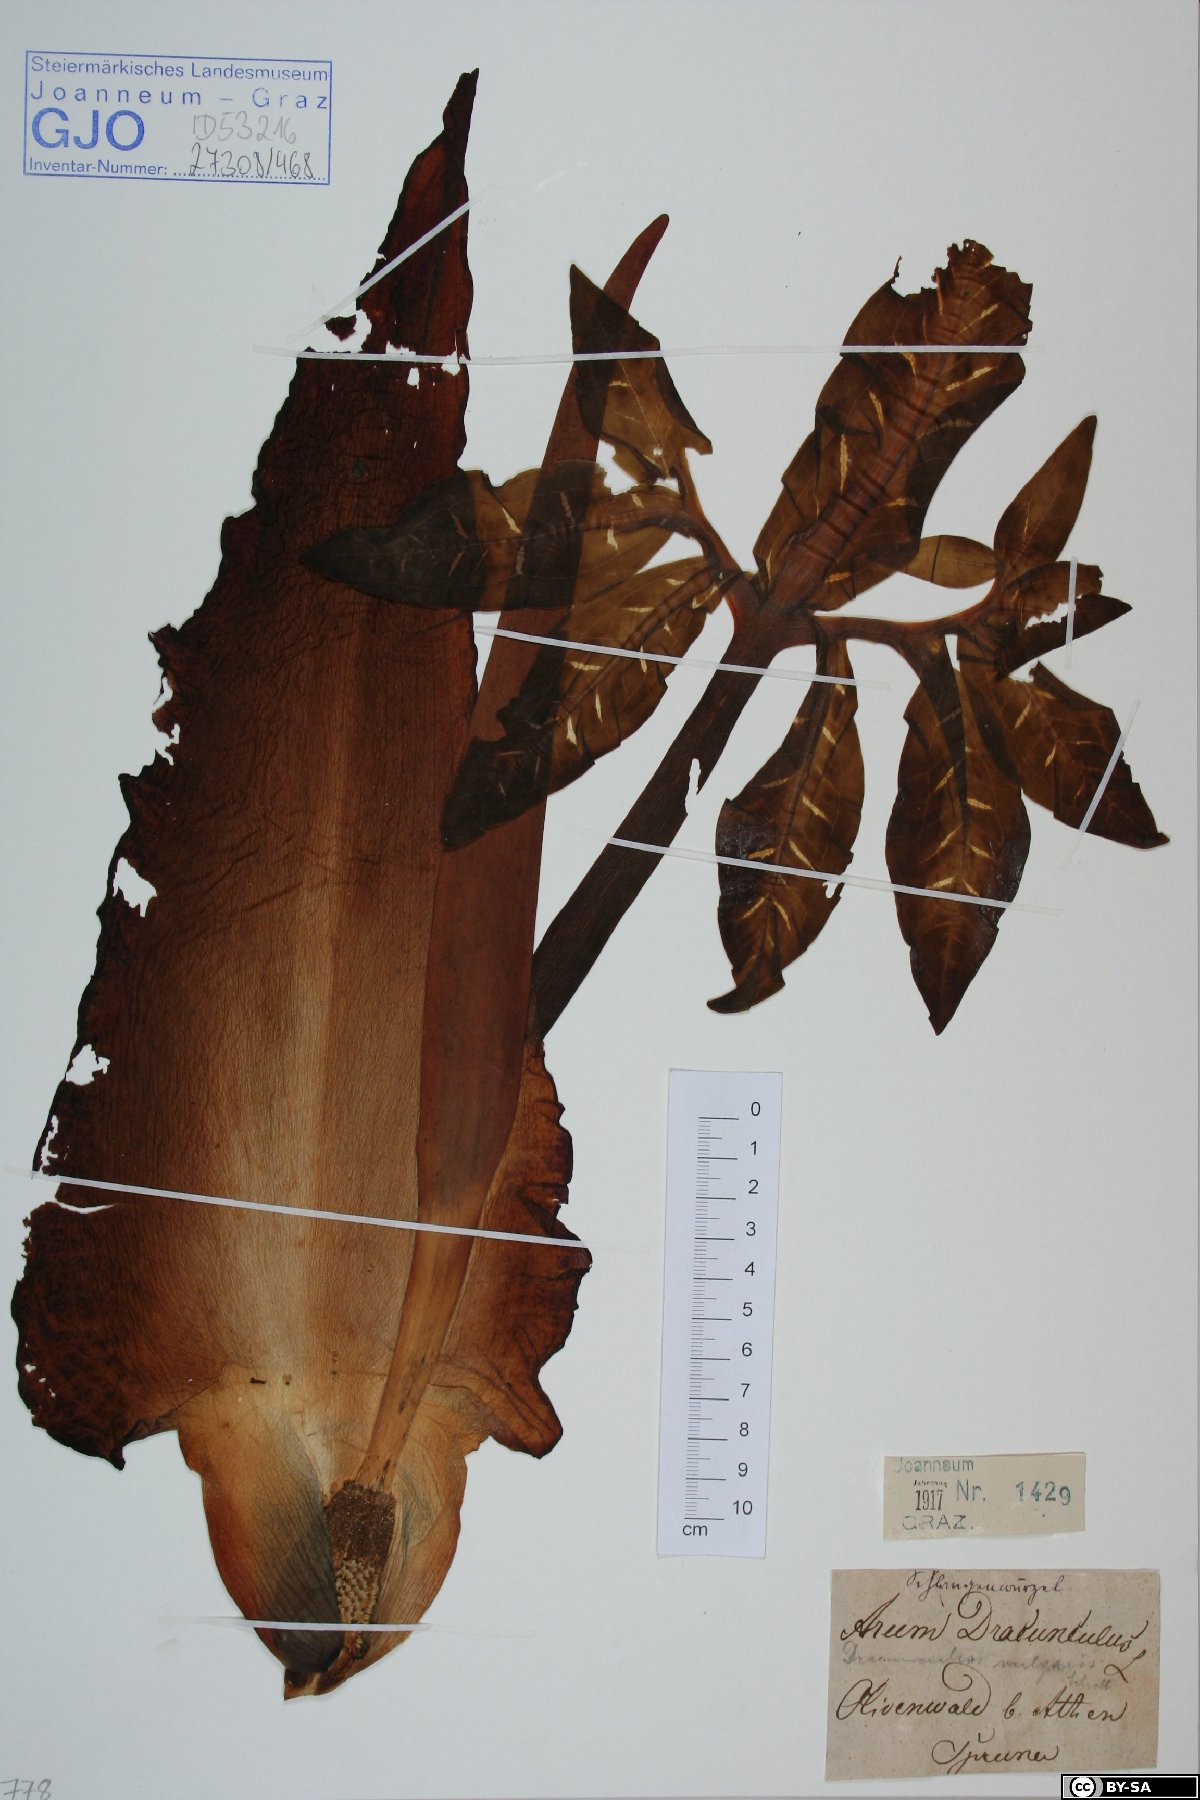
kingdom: Plantae
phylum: Tracheophyta
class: Liliopsida
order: Alismatales
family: Araceae
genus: Dracunculus
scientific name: Dracunculus vulgaris
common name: Dragon arum
